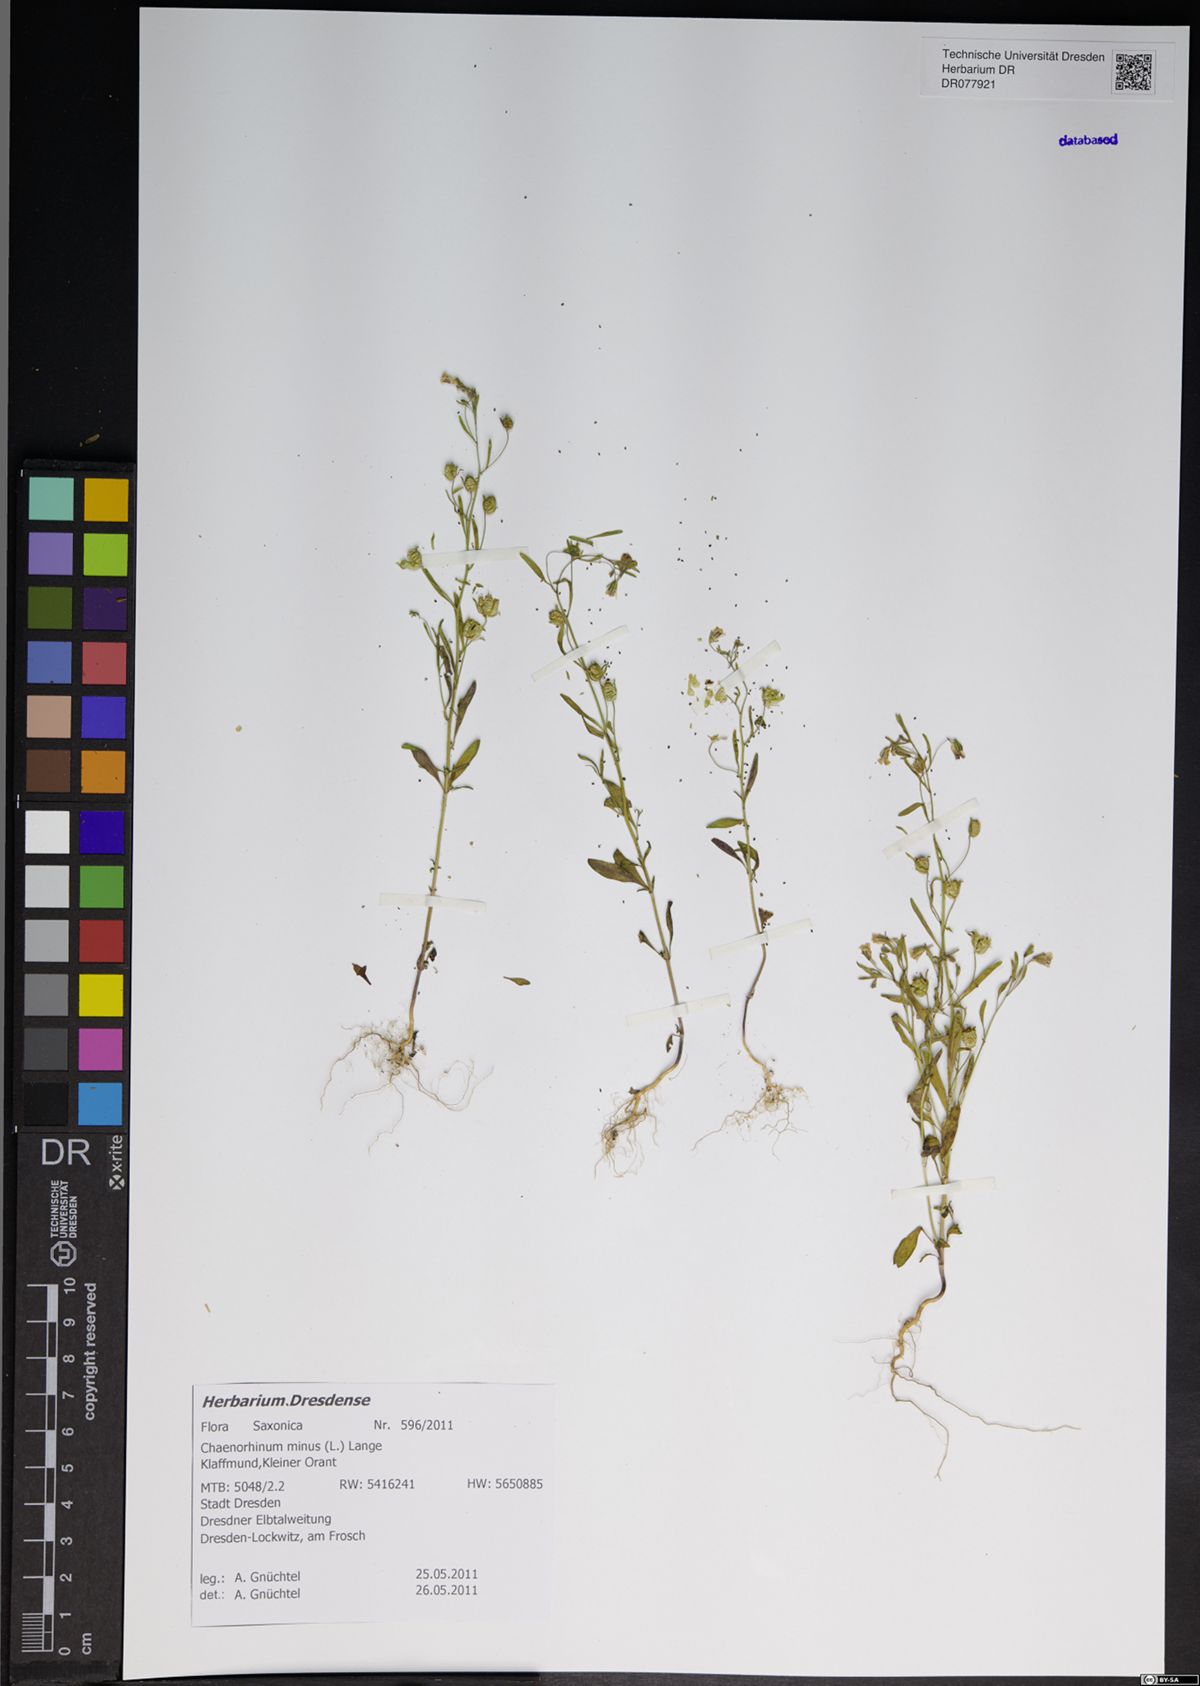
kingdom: Plantae
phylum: Tracheophyta
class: Magnoliopsida
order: Lamiales
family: Plantaginaceae
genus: Chaenorhinum
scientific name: Chaenorhinum minus
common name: Dwarf snapdragon
